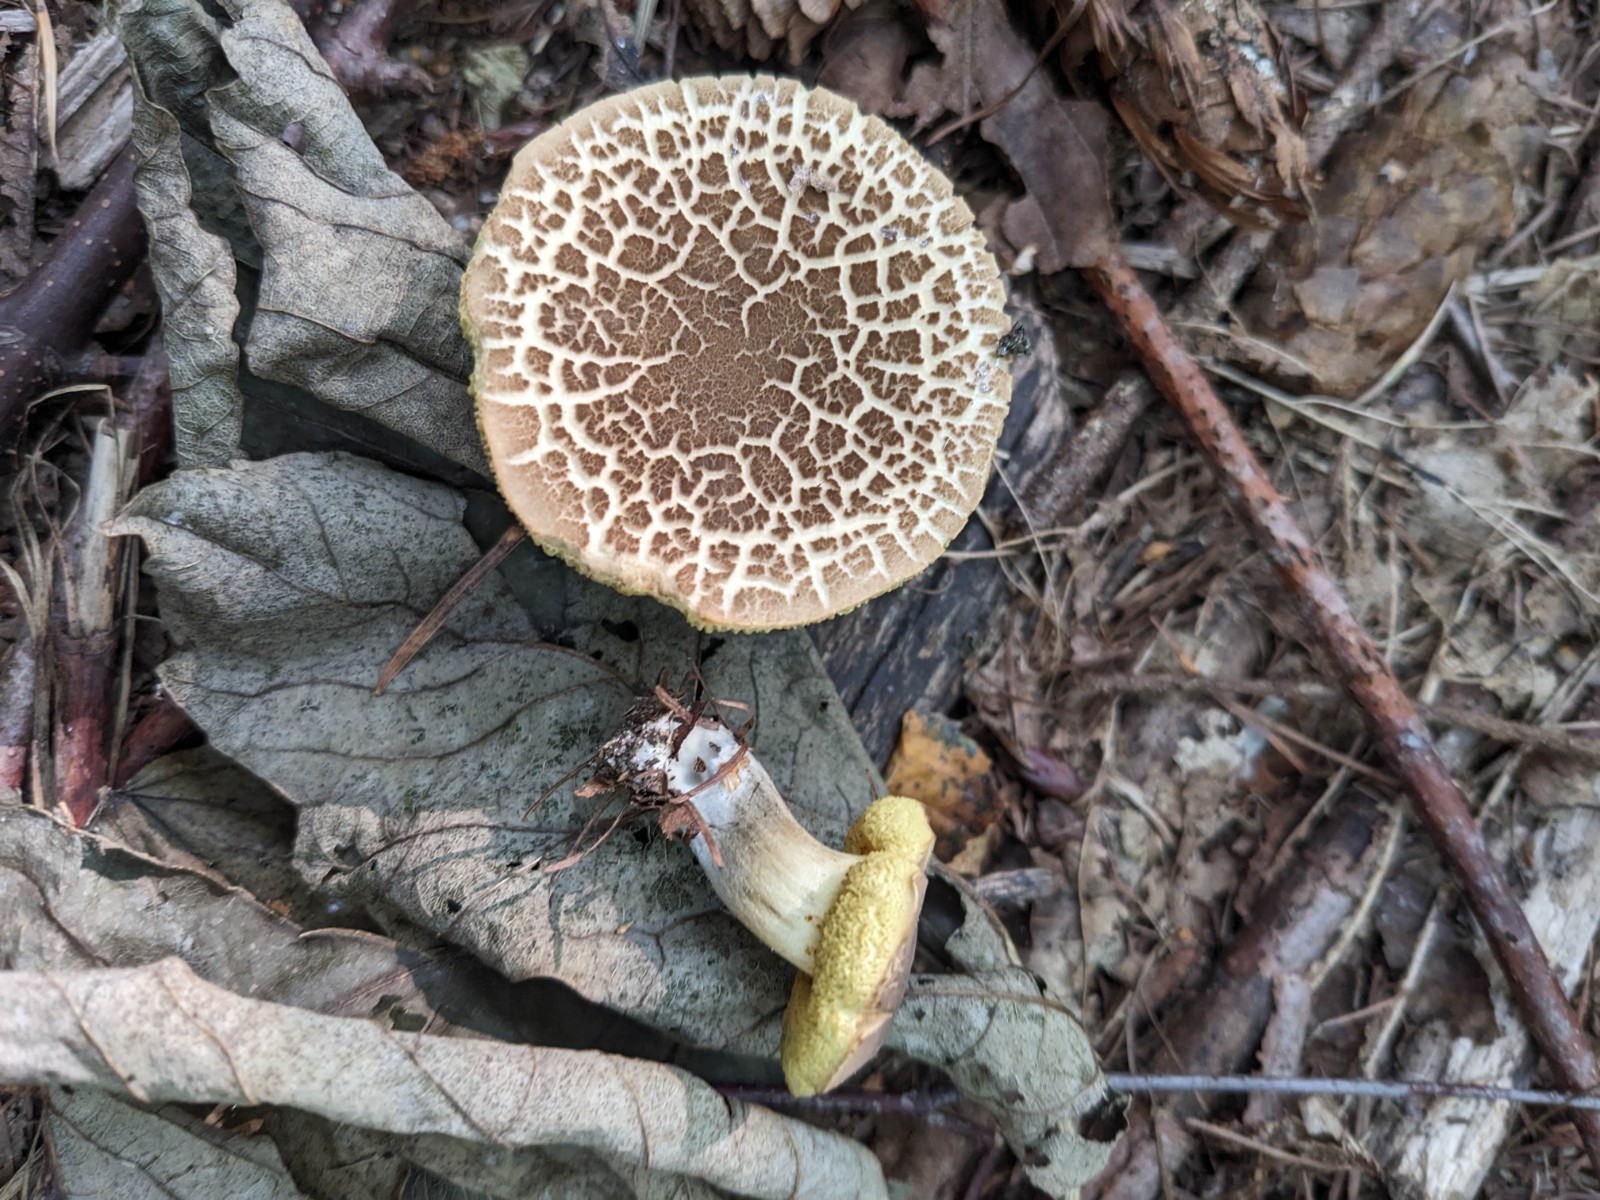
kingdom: Fungi
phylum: Basidiomycota
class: Agaricomycetes
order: Boletales
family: Boletaceae
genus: Xerocomellus
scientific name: Xerocomellus porosporus
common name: hvidsprukken rørhat
